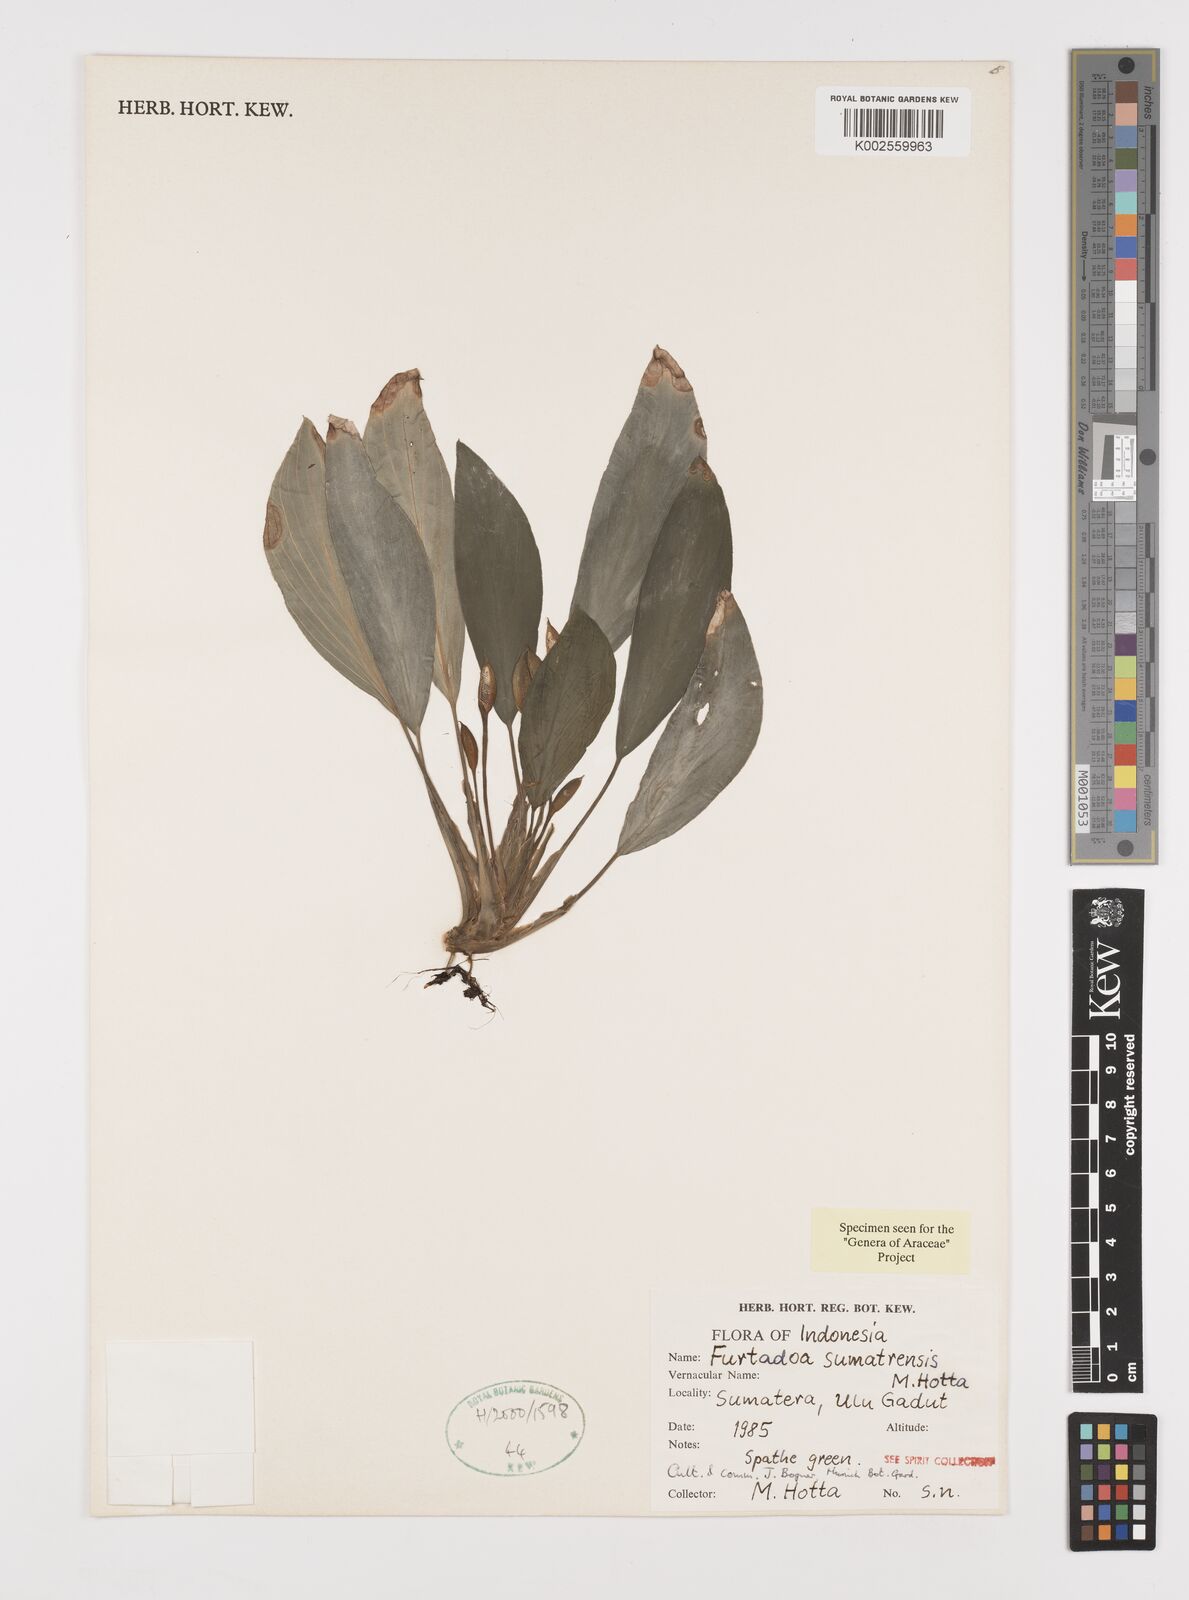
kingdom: Plantae
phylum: Tracheophyta
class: Liliopsida
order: Alismatales
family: Araceae
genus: Furtadoa
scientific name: Furtadoa sumatrensis
